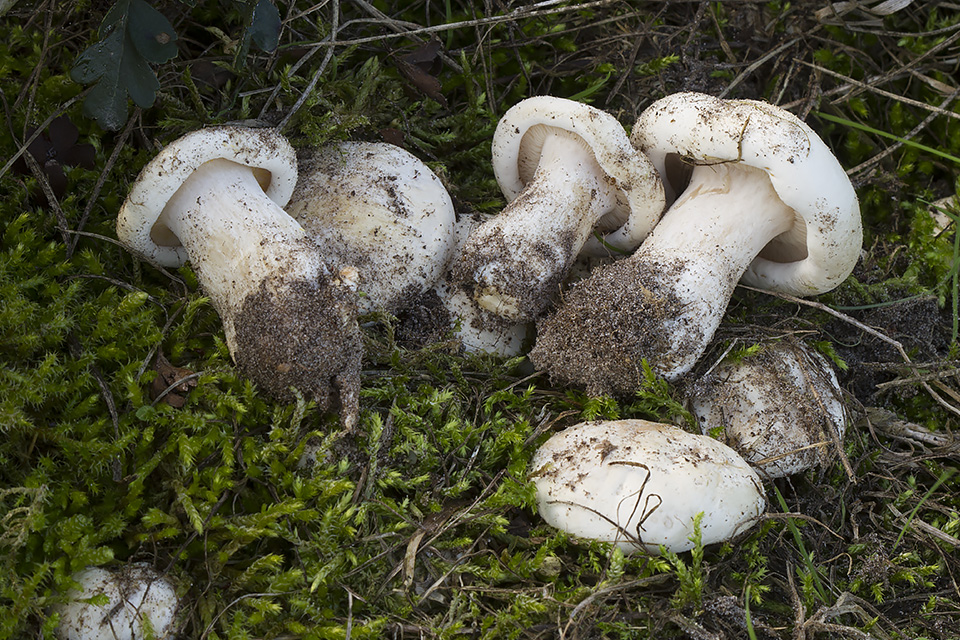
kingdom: Fungi
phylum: Basidiomycota
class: Agaricomycetes
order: Agaricales
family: Entolomataceae
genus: Clitopilus
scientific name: Clitopilus prunulus
